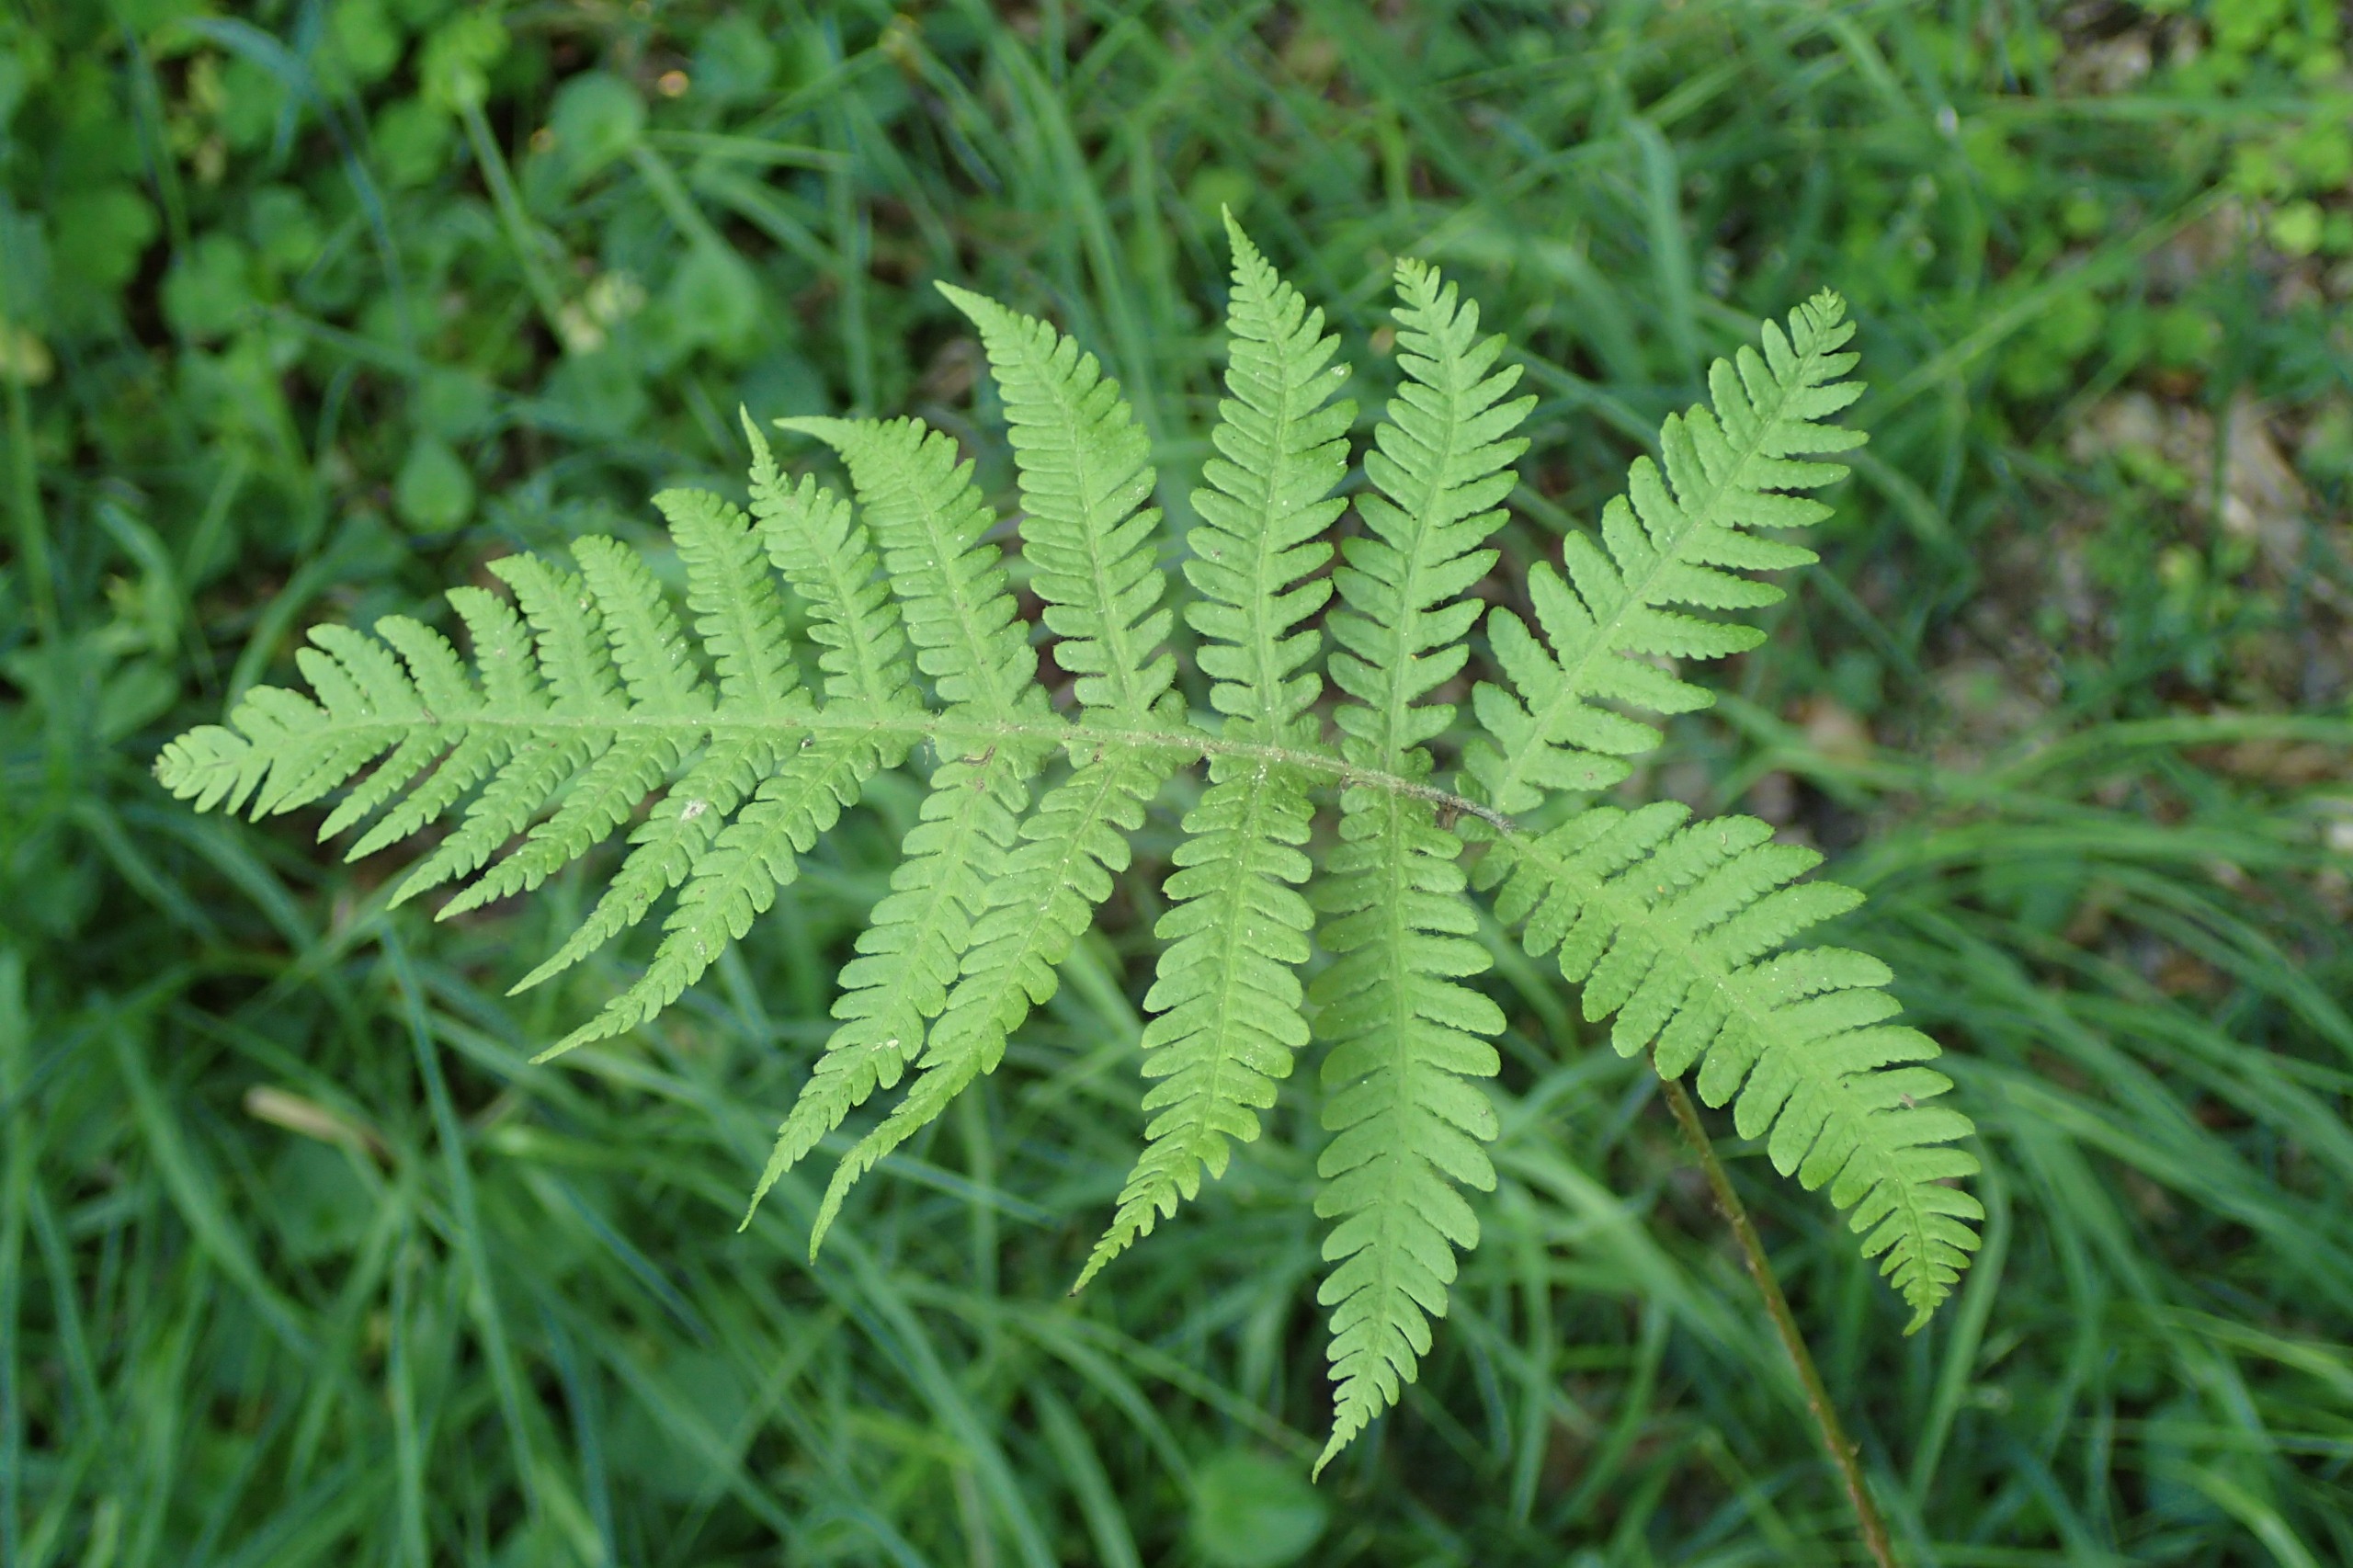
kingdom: Plantae
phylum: Tracheophyta
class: Polypodiopsida
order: Polypodiales
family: Thelypteridaceae
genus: Phegopteris
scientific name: Phegopteris connectilis
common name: Dunet egebregne
